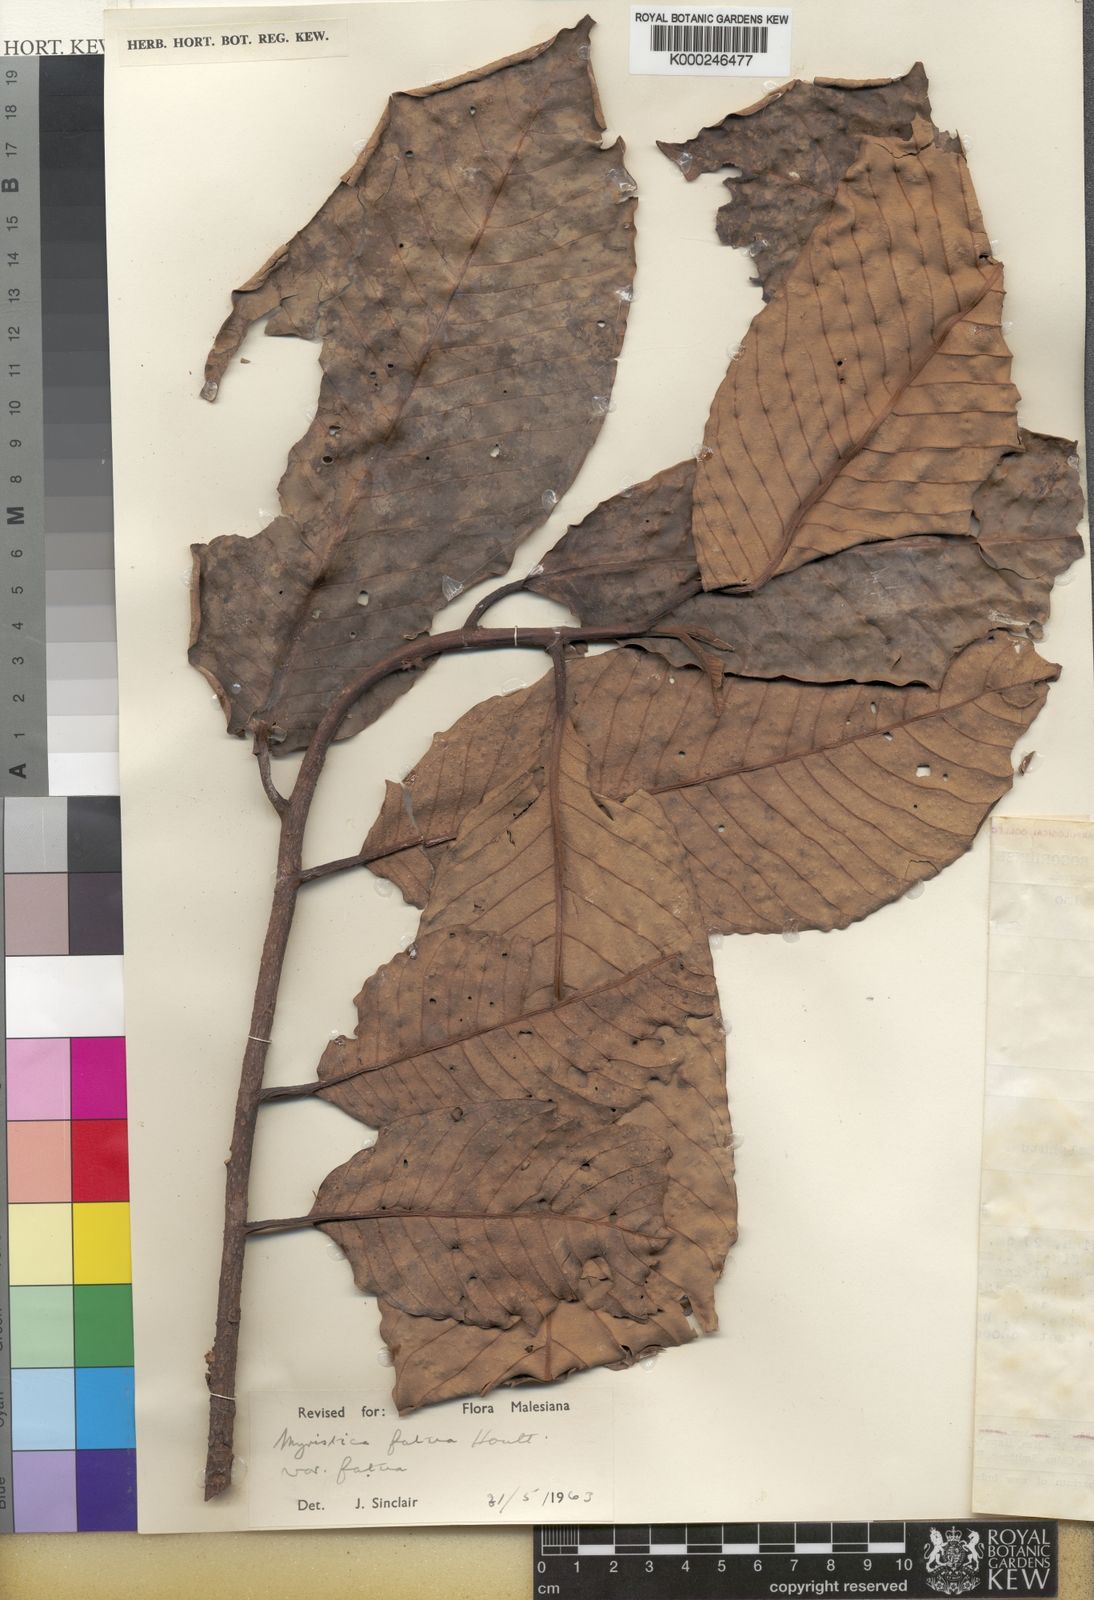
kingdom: Plantae
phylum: Tracheophyta
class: Magnoliopsida
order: Magnoliales
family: Myristicaceae
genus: Myristica
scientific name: Myristica fatua
